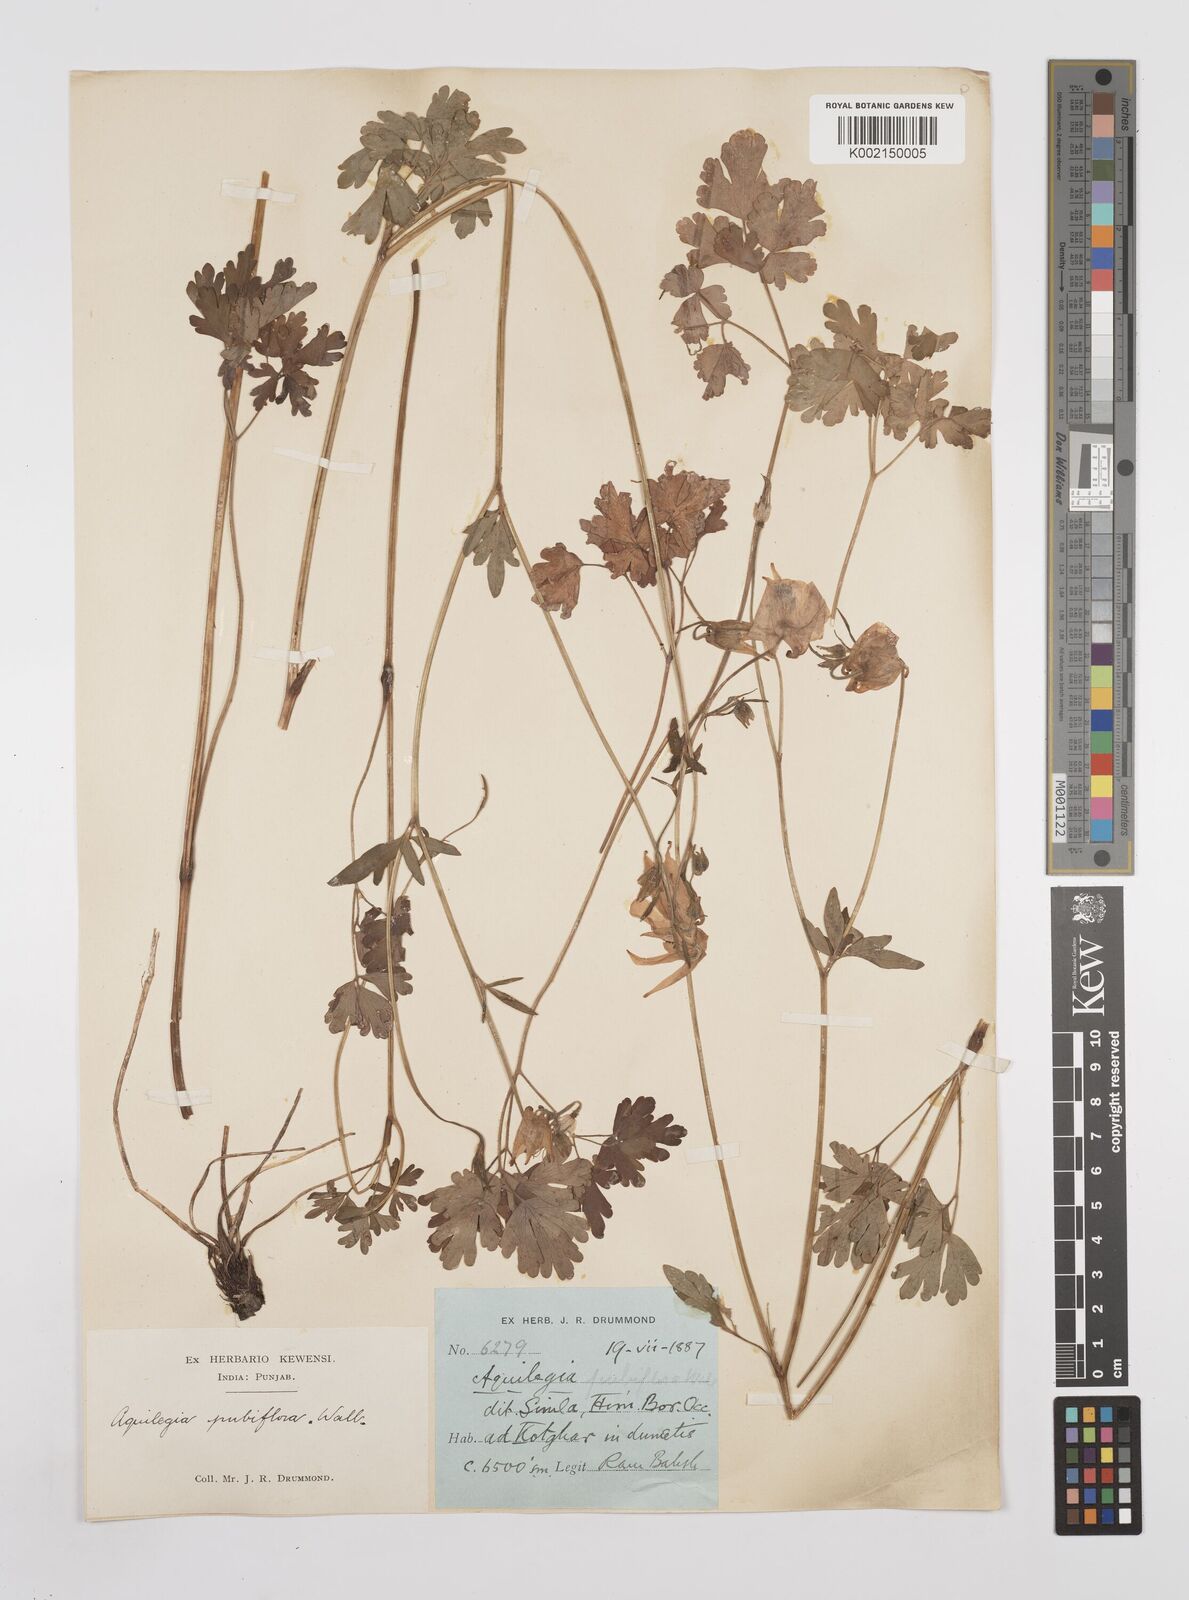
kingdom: Plantae
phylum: Tracheophyta
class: Magnoliopsida
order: Ranunculales
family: Ranunculaceae
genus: Aquilegia
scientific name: Aquilegia pubiflora
